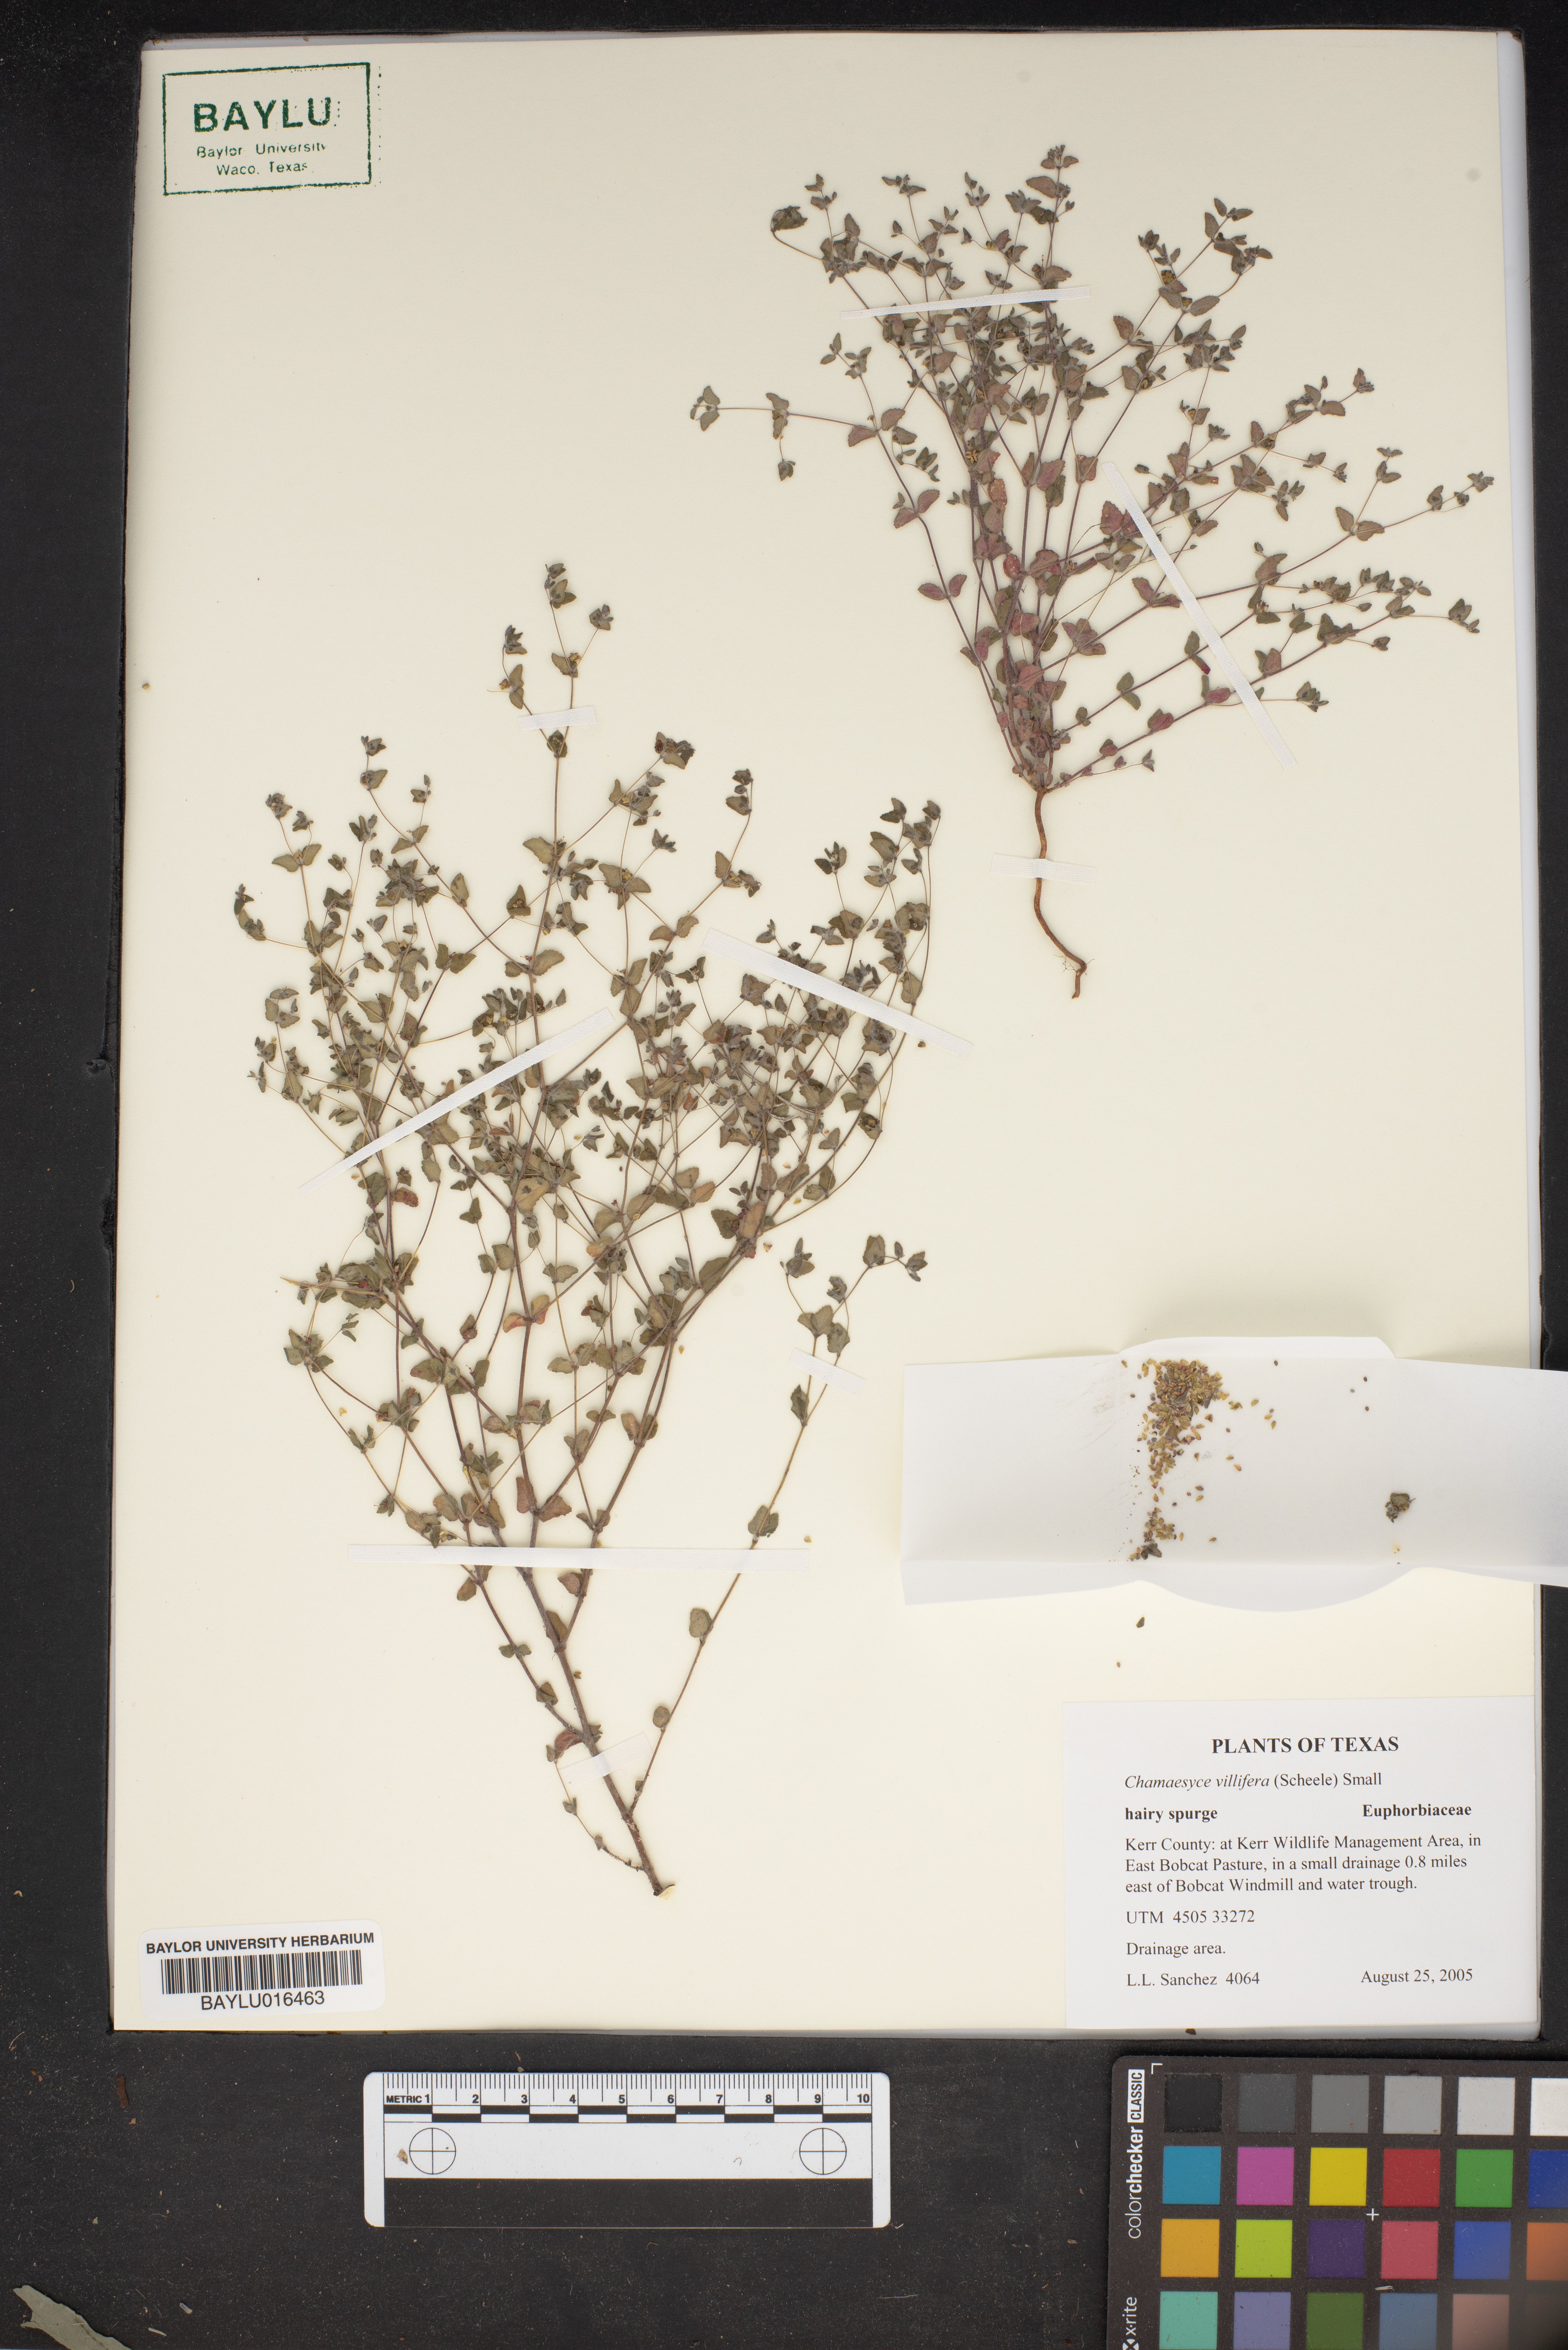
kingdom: Plantae
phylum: Tracheophyta
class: Magnoliopsida
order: Malpighiales
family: Euphorbiaceae
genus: Euphorbia
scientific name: Euphorbia villifera
